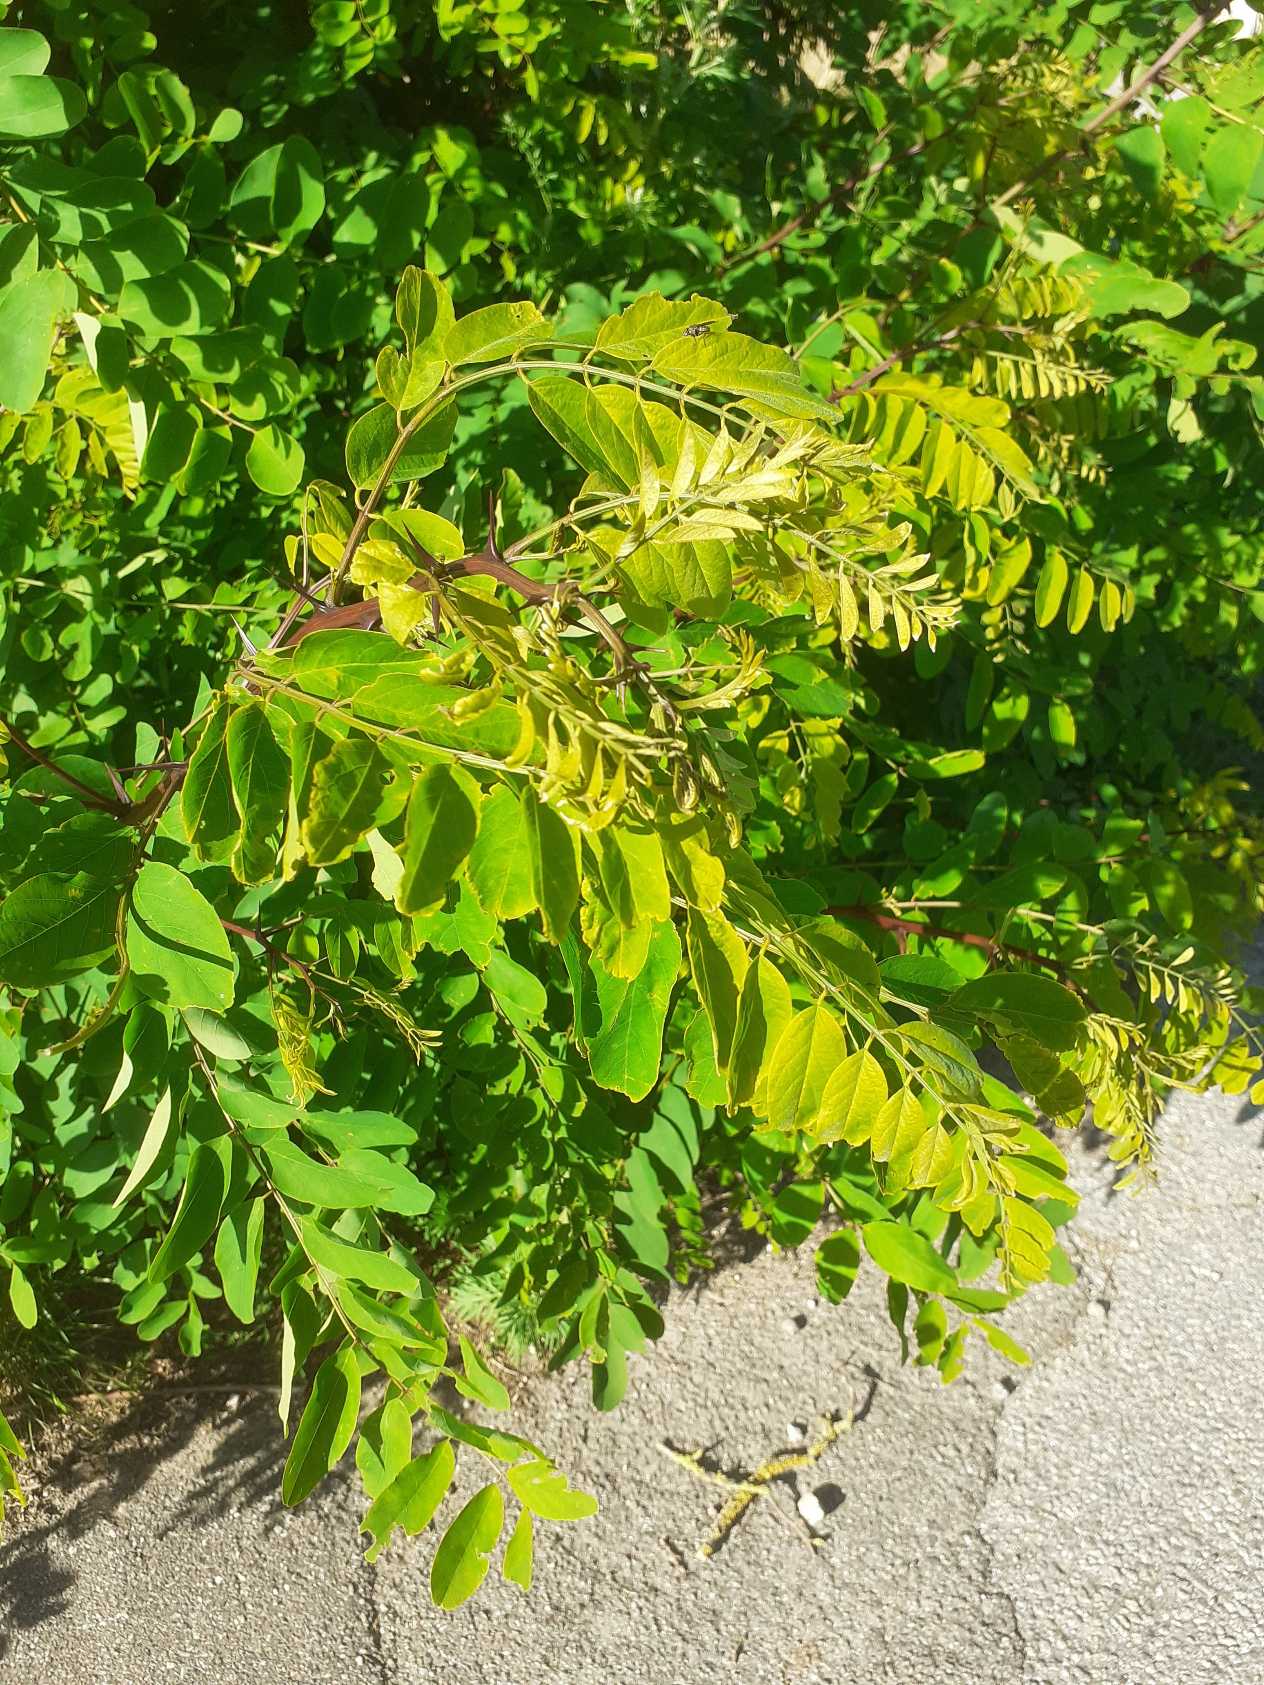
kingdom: Plantae
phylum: Tracheophyta
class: Magnoliopsida
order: Fabales
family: Fabaceae
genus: Robinia
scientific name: Robinia pseudoacacia
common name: Robinie
